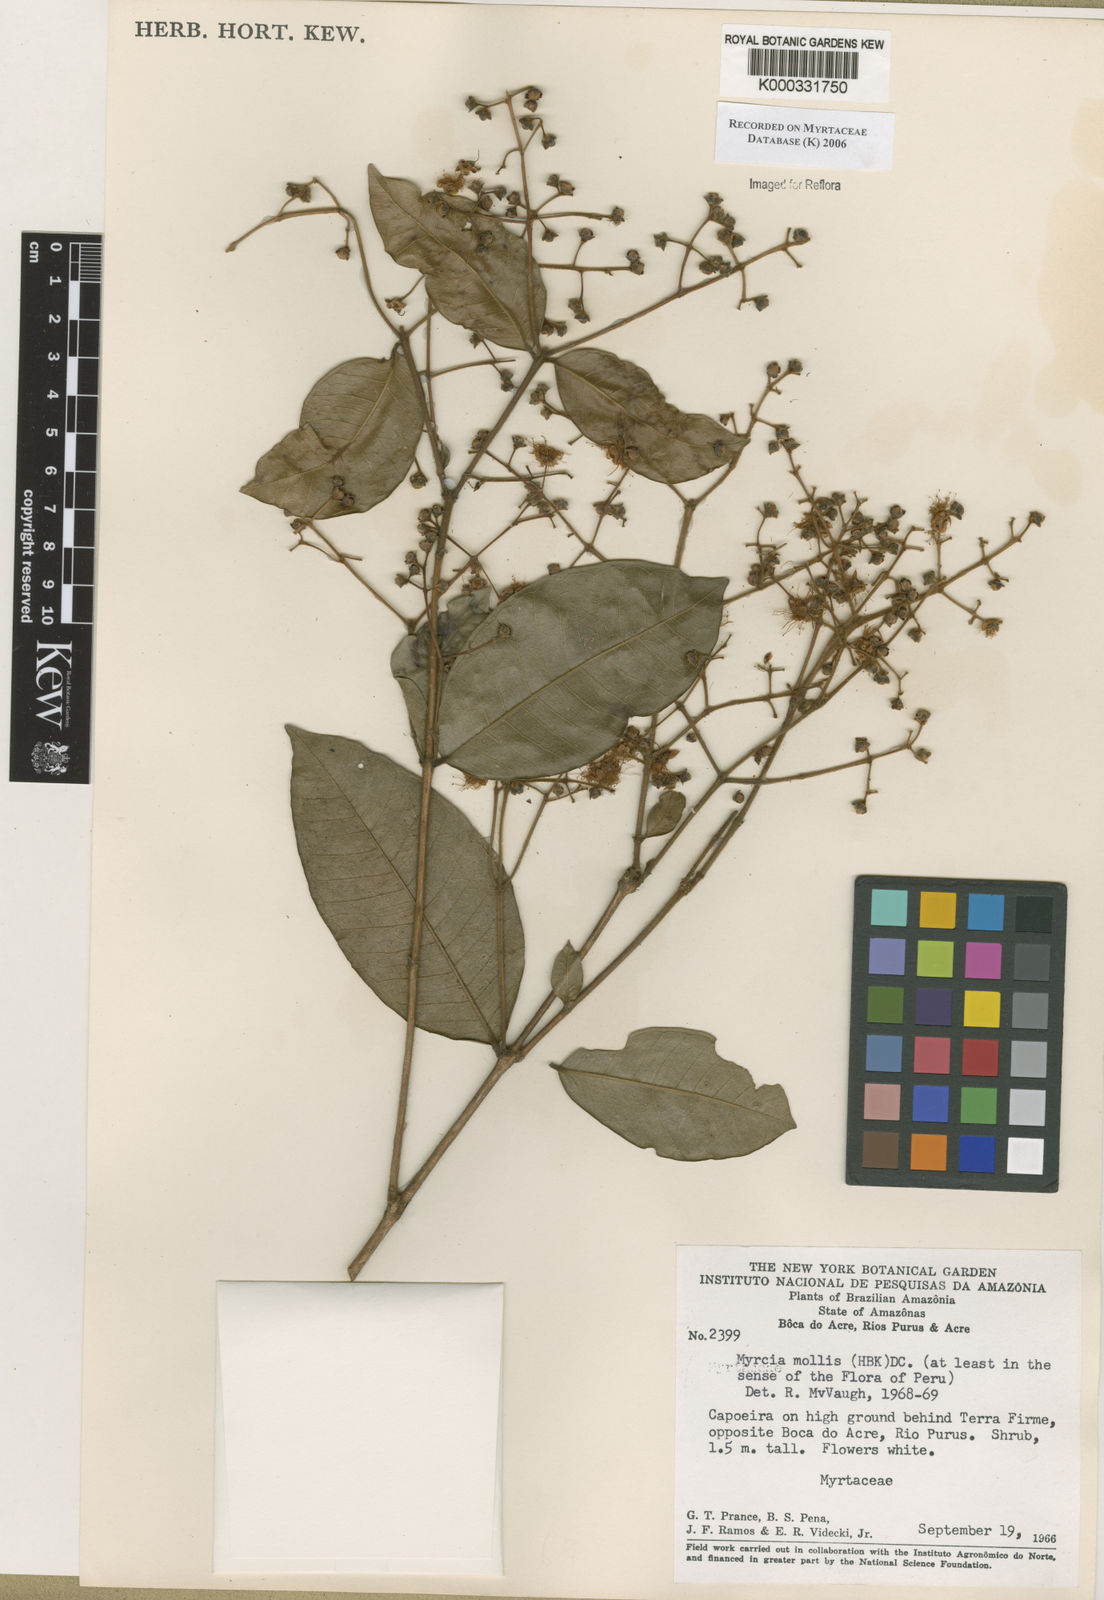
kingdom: Plantae
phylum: Tracheophyta
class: Magnoliopsida
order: Myrtales
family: Myrtaceae
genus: Myrcia
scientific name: Myrcia mollis
